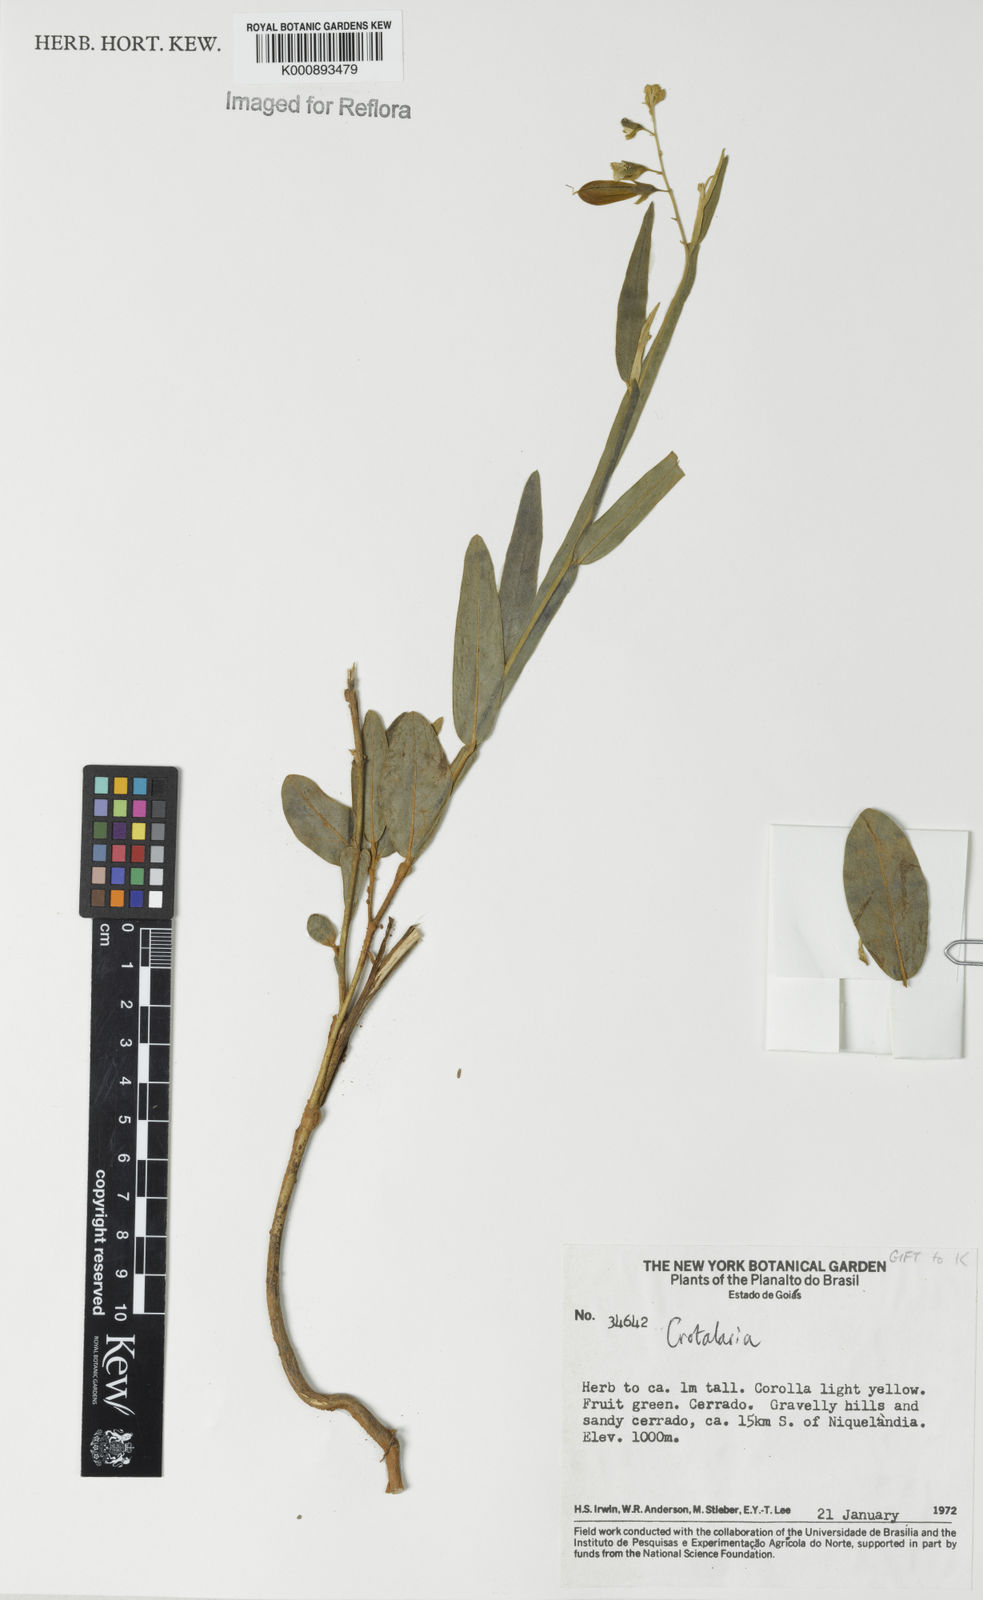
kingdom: Plantae
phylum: Tracheophyta
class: Magnoliopsida
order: Fabales
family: Fabaceae
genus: Crotalaria
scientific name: Crotalaria breviflora
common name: Short-flower crotalaria
